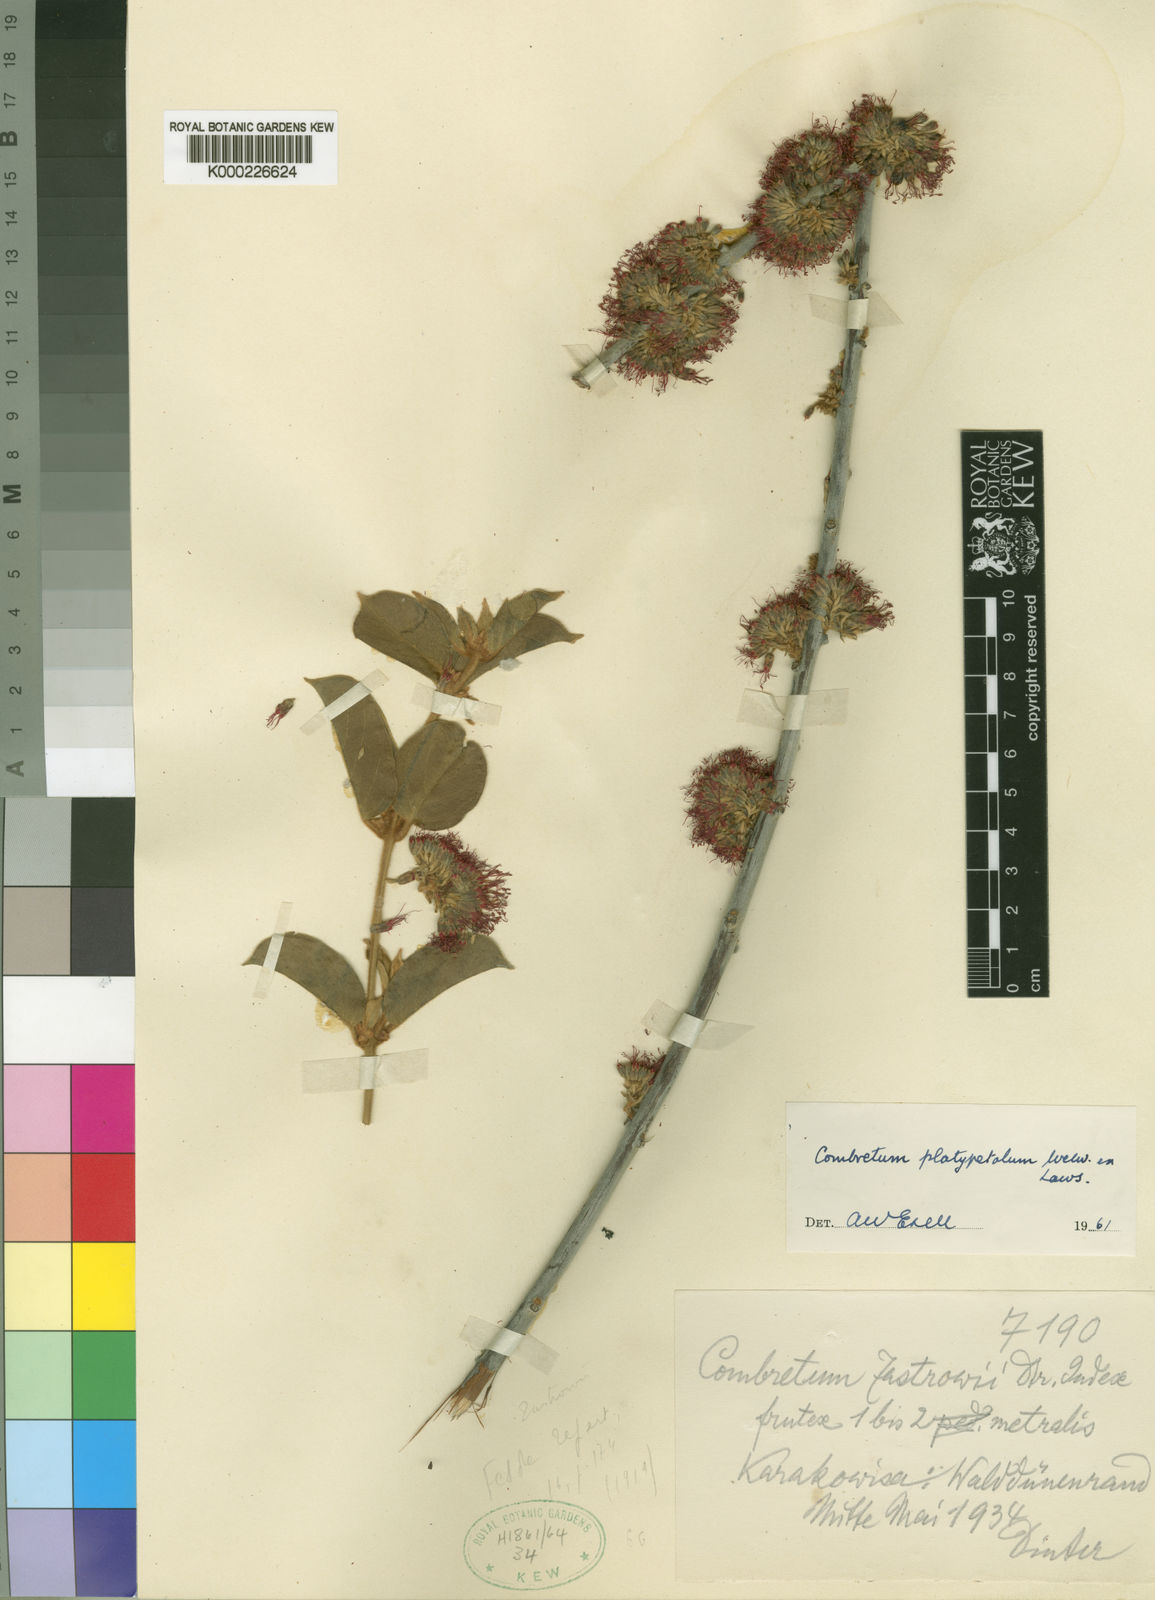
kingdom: Plantae
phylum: Tracheophyta
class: Magnoliopsida
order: Myrtales
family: Combretaceae
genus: Combretum
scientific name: Combretum platypetalum
